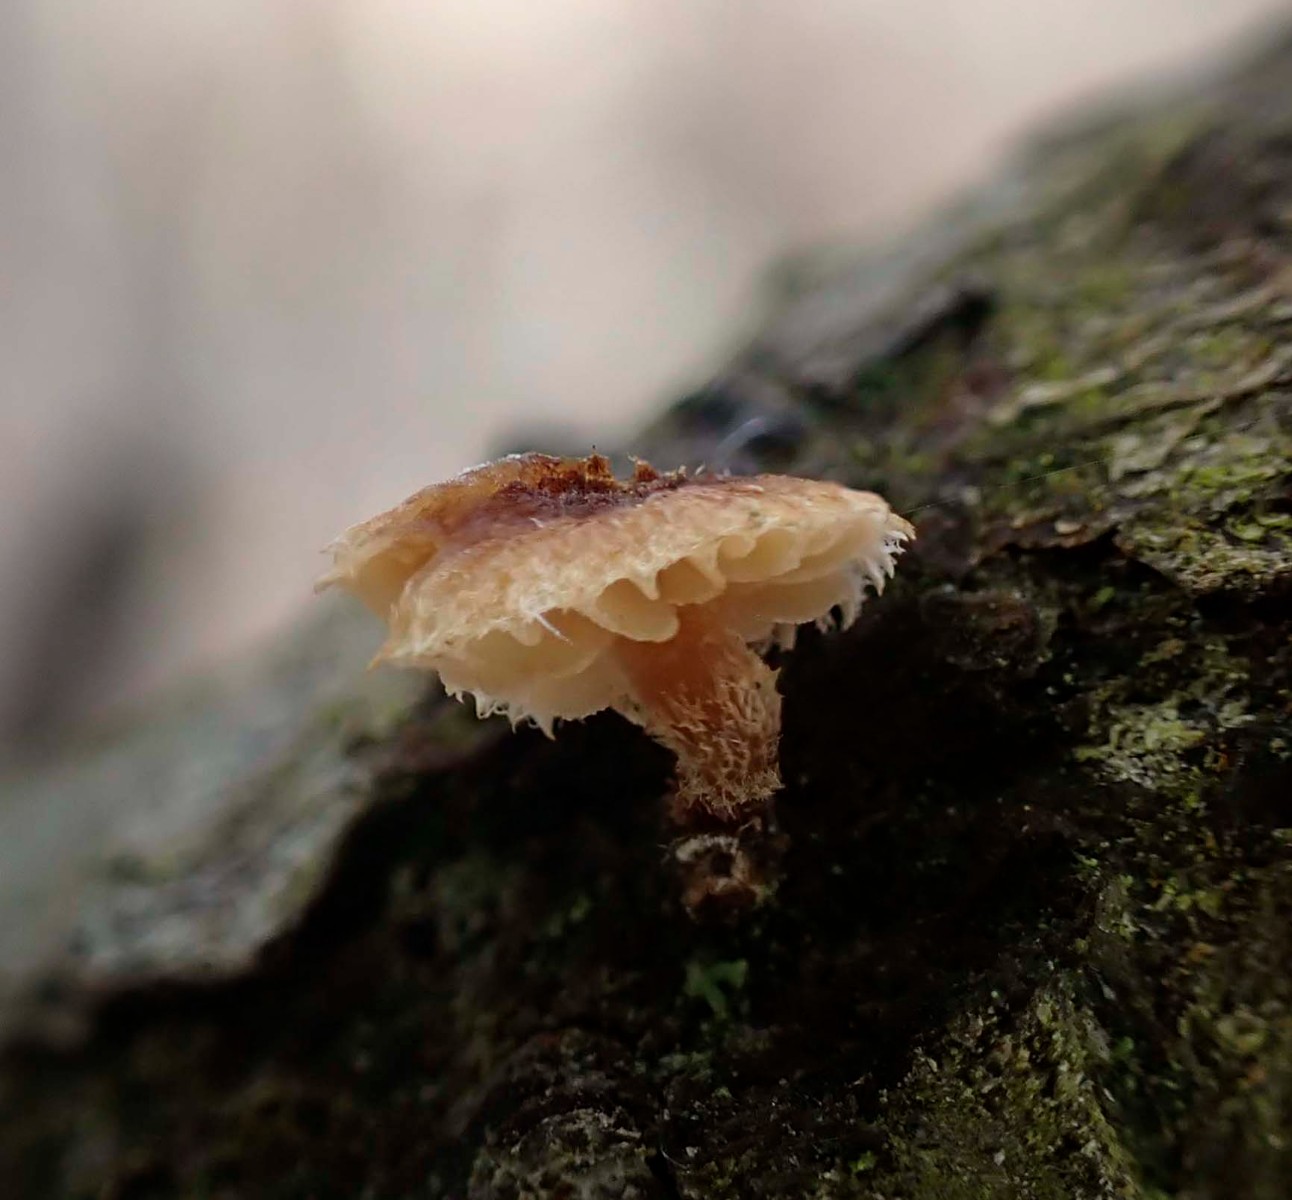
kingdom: Fungi
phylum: Basidiomycota
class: Agaricomycetes
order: Agaricales
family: Tubariaceae
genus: Phaeomarasmius
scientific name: Phaeomarasmius erinaceus
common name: spidsskælhat
